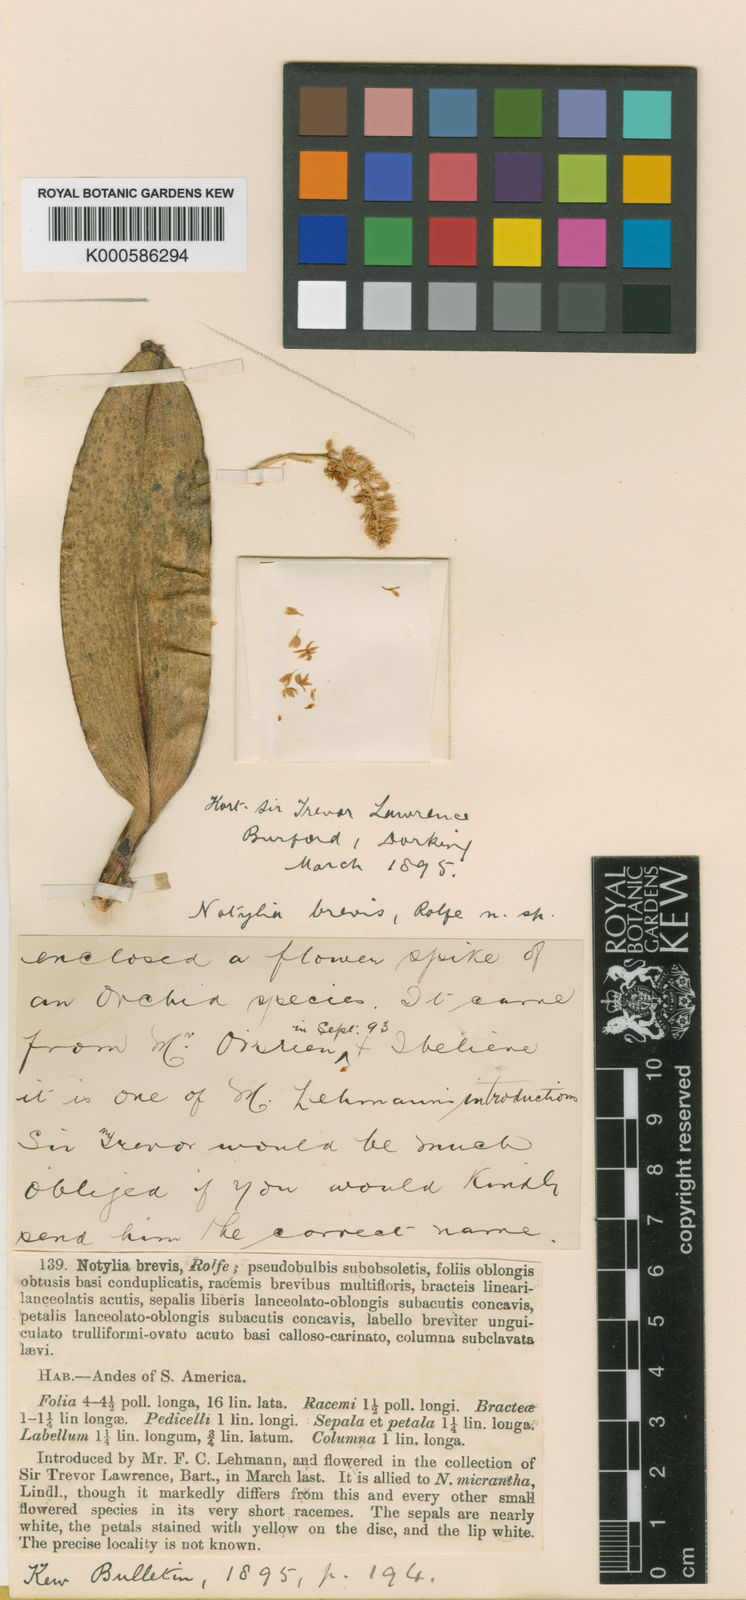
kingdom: Plantae
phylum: Tracheophyta
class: Liliopsida
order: Asparagales
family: Orchidaceae
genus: Notylia
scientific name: Notylia brevis
